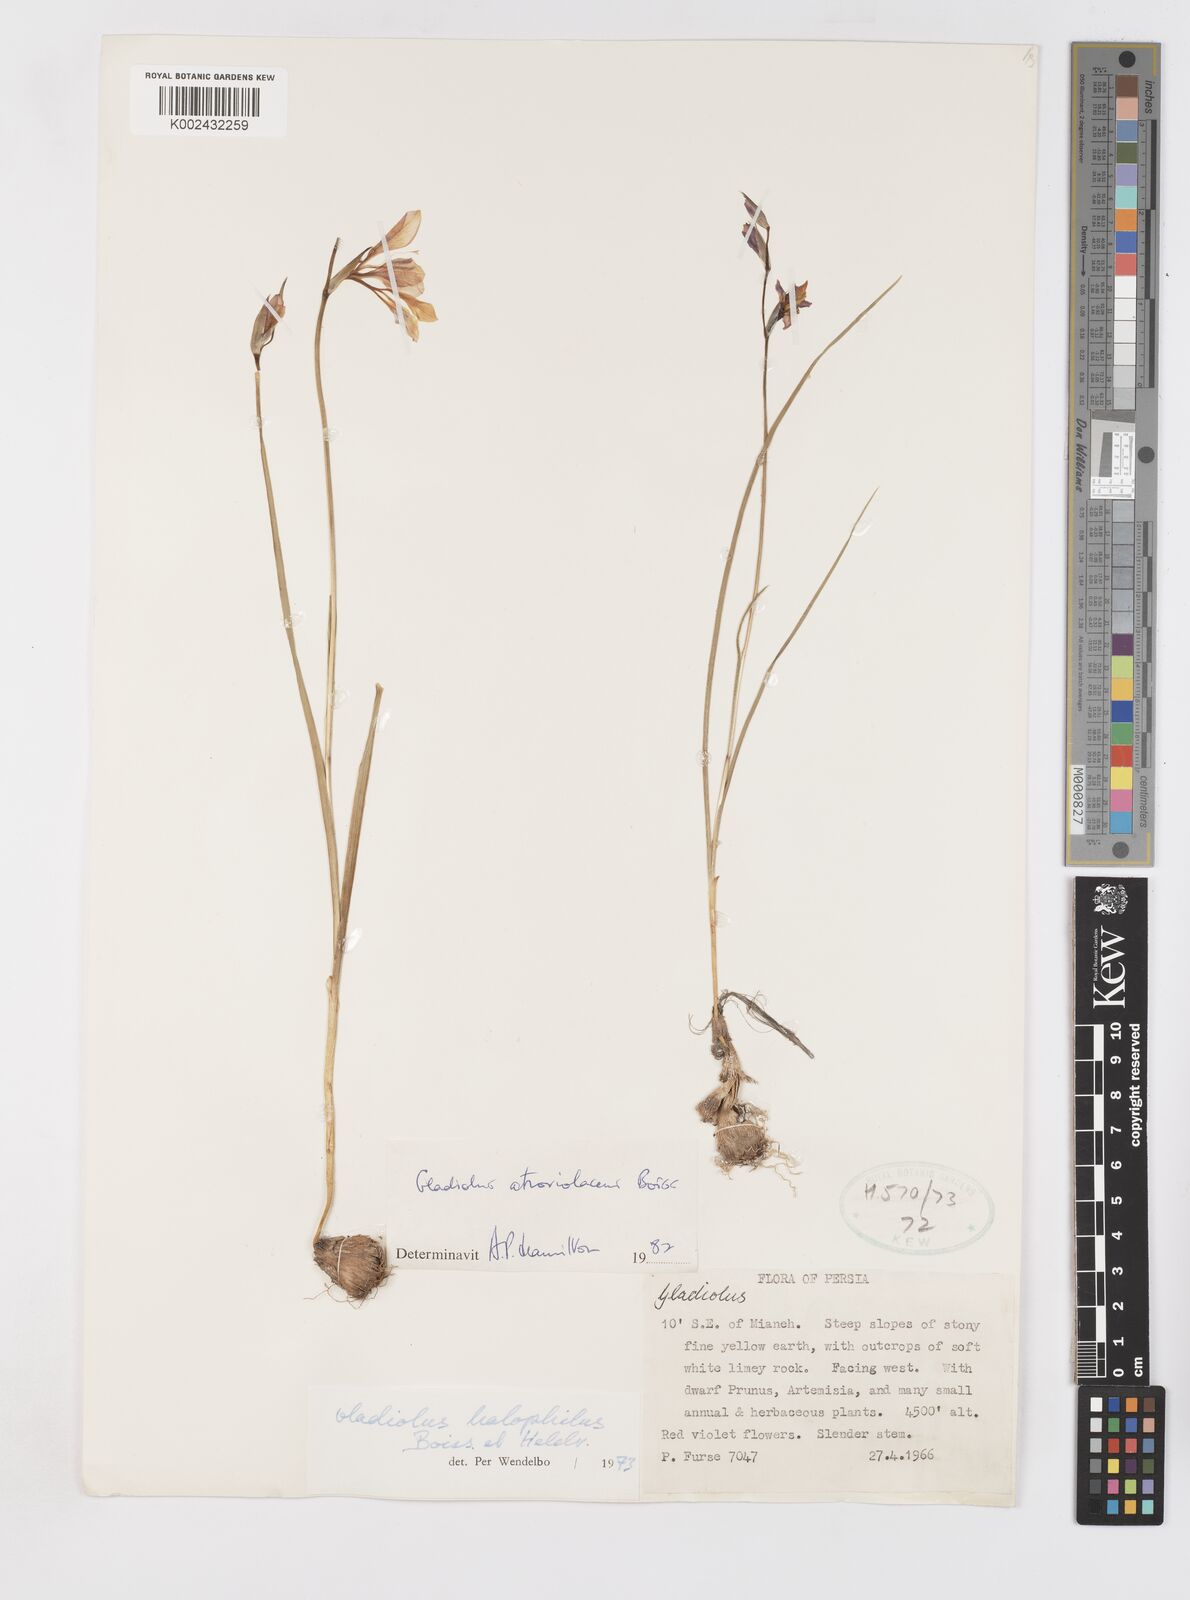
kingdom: Plantae
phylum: Tracheophyta
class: Liliopsida
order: Asparagales
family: Iridaceae
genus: Gladiolus
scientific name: Gladiolus atroviolaceus
